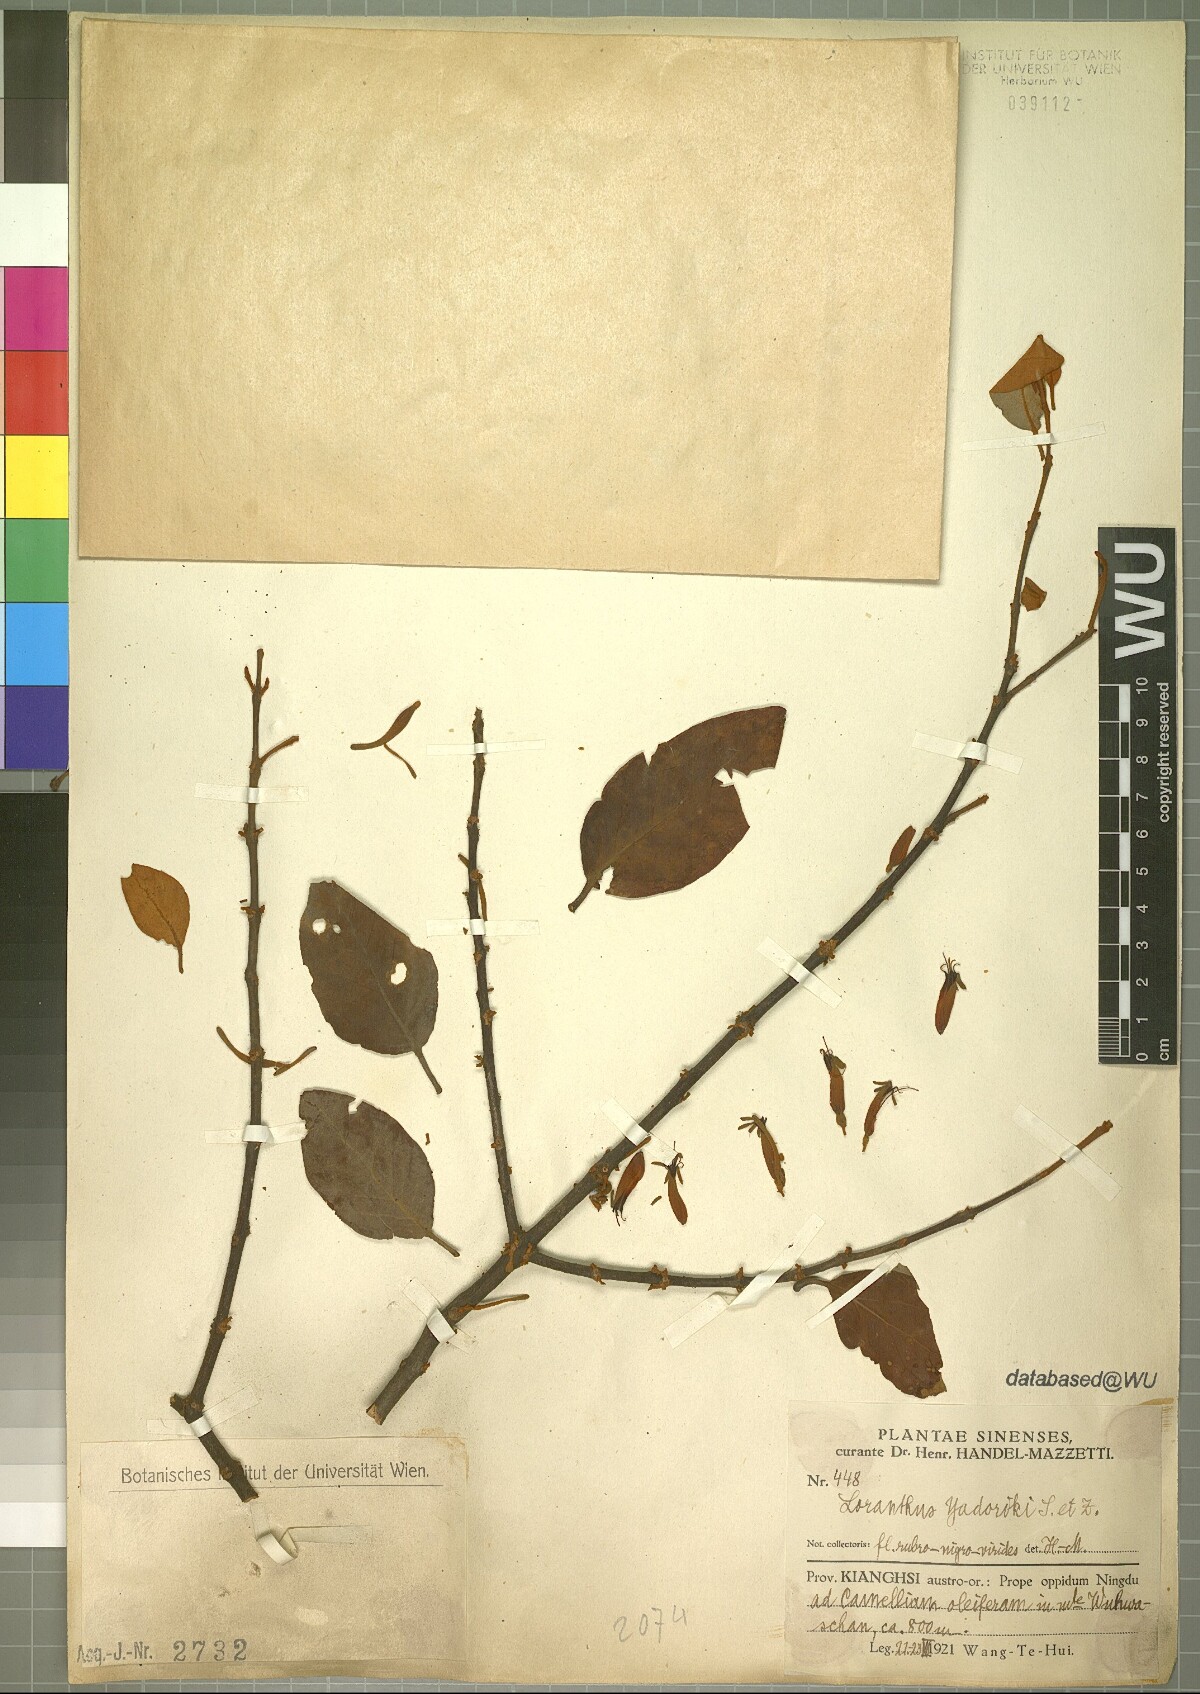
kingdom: Plantae
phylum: Tracheophyta
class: Magnoliopsida
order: Santalales
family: Loranthaceae
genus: Taxillus
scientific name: Taxillus sutchuenensis
